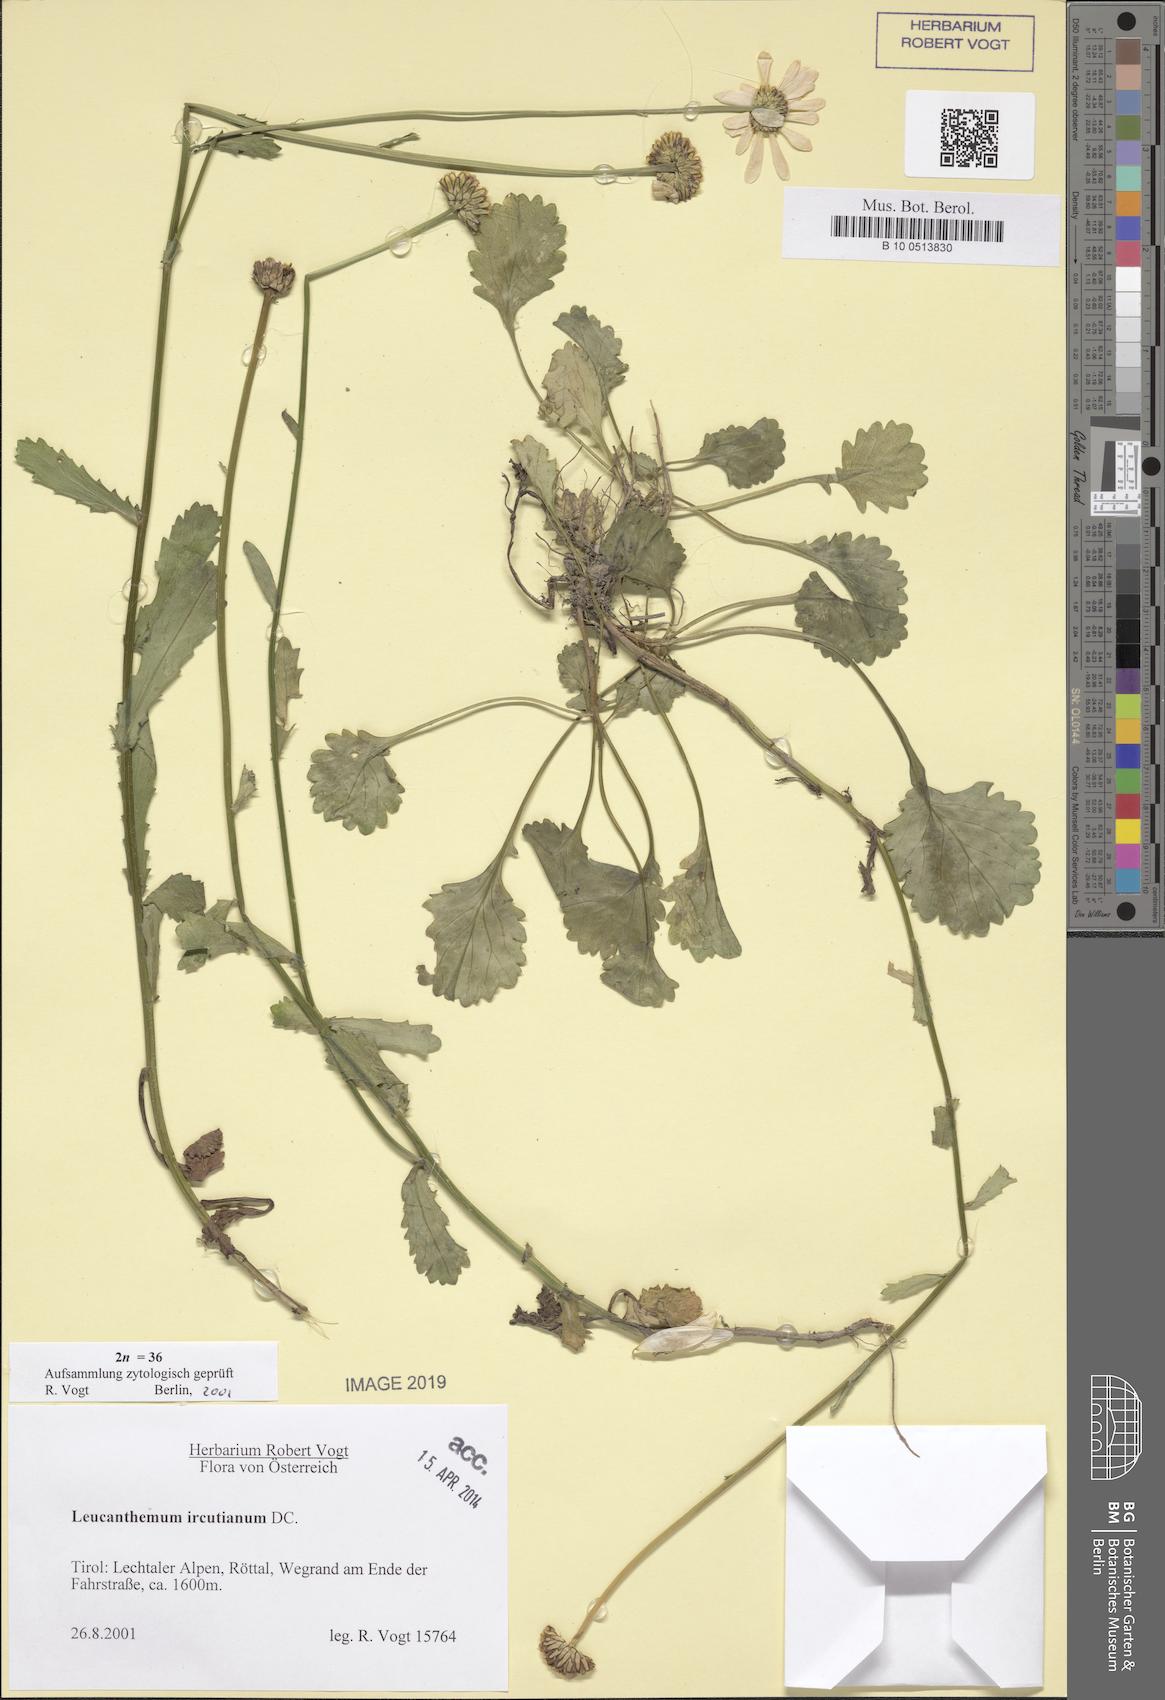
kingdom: Plantae
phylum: Tracheophyta
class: Magnoliopsida
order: Asterales
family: Asteraceae
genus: Leucanthemum
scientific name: Leucanthemum ircutianum
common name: Daisy
